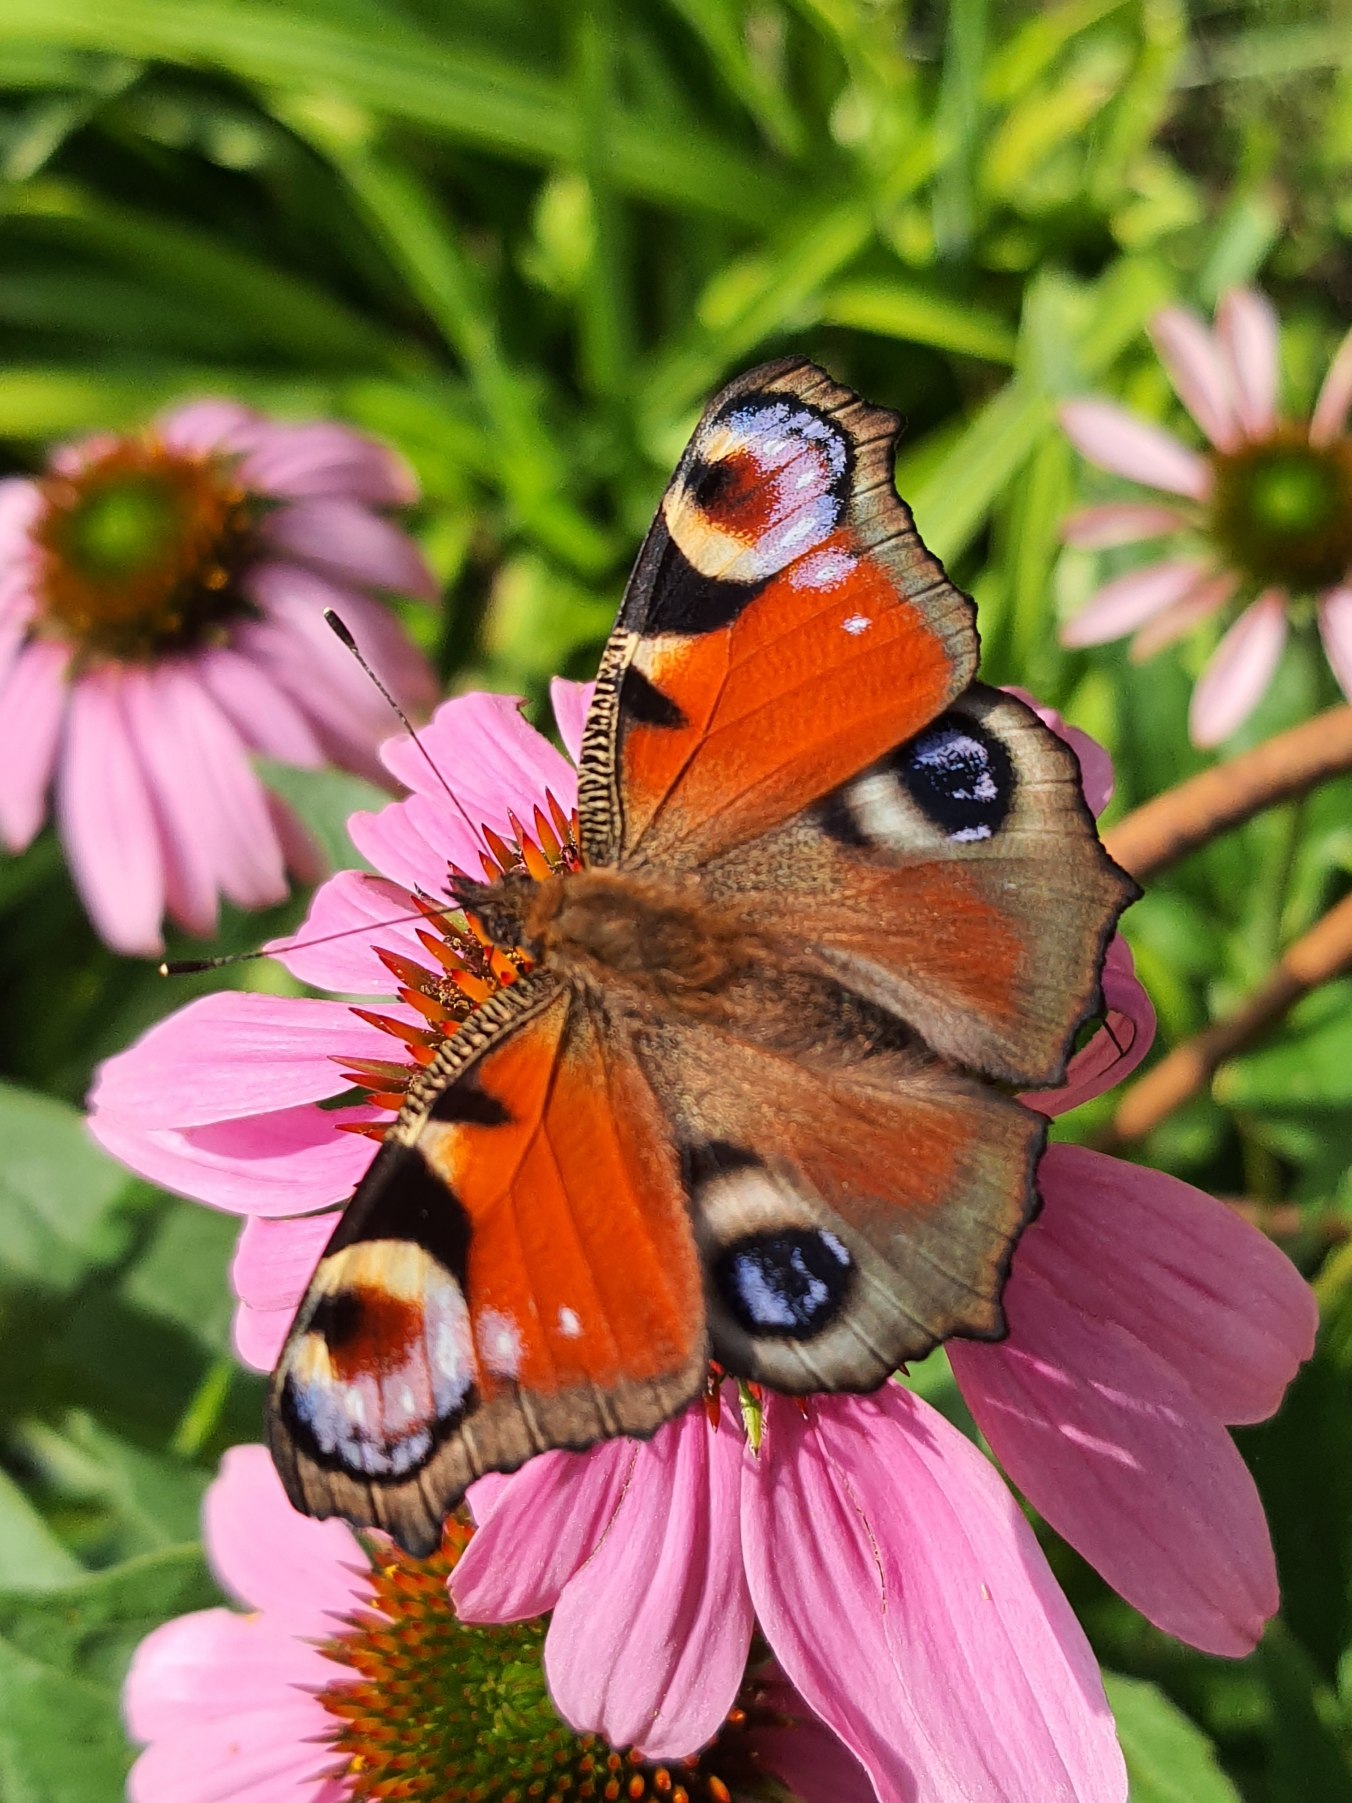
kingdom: Animalia
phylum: Arthropoda
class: Insecta
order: Lepidoptera
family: Nymphalidae
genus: Aglais
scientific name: Aglais io
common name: Dagpåfugleøje
